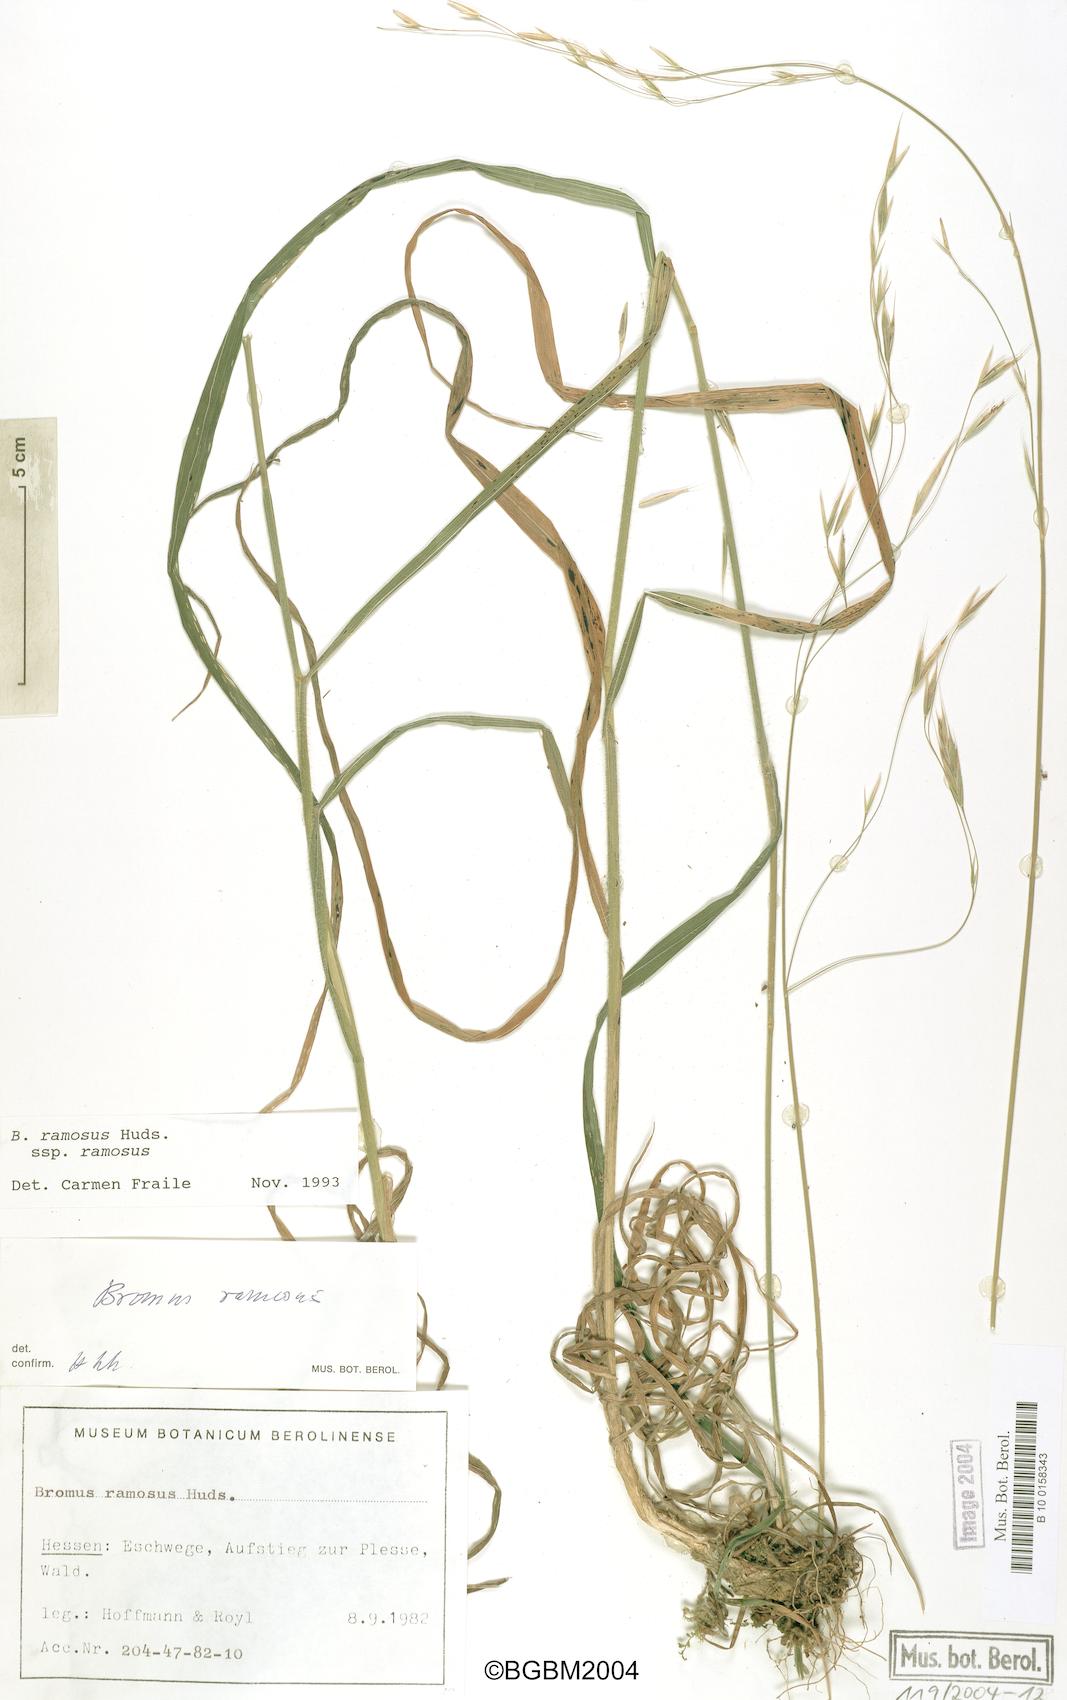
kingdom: Plantae
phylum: Tracheophyta
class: Liliopsida
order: Poales
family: Poaceae
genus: Bromus
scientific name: Bromus ramosus
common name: Hairy brome
